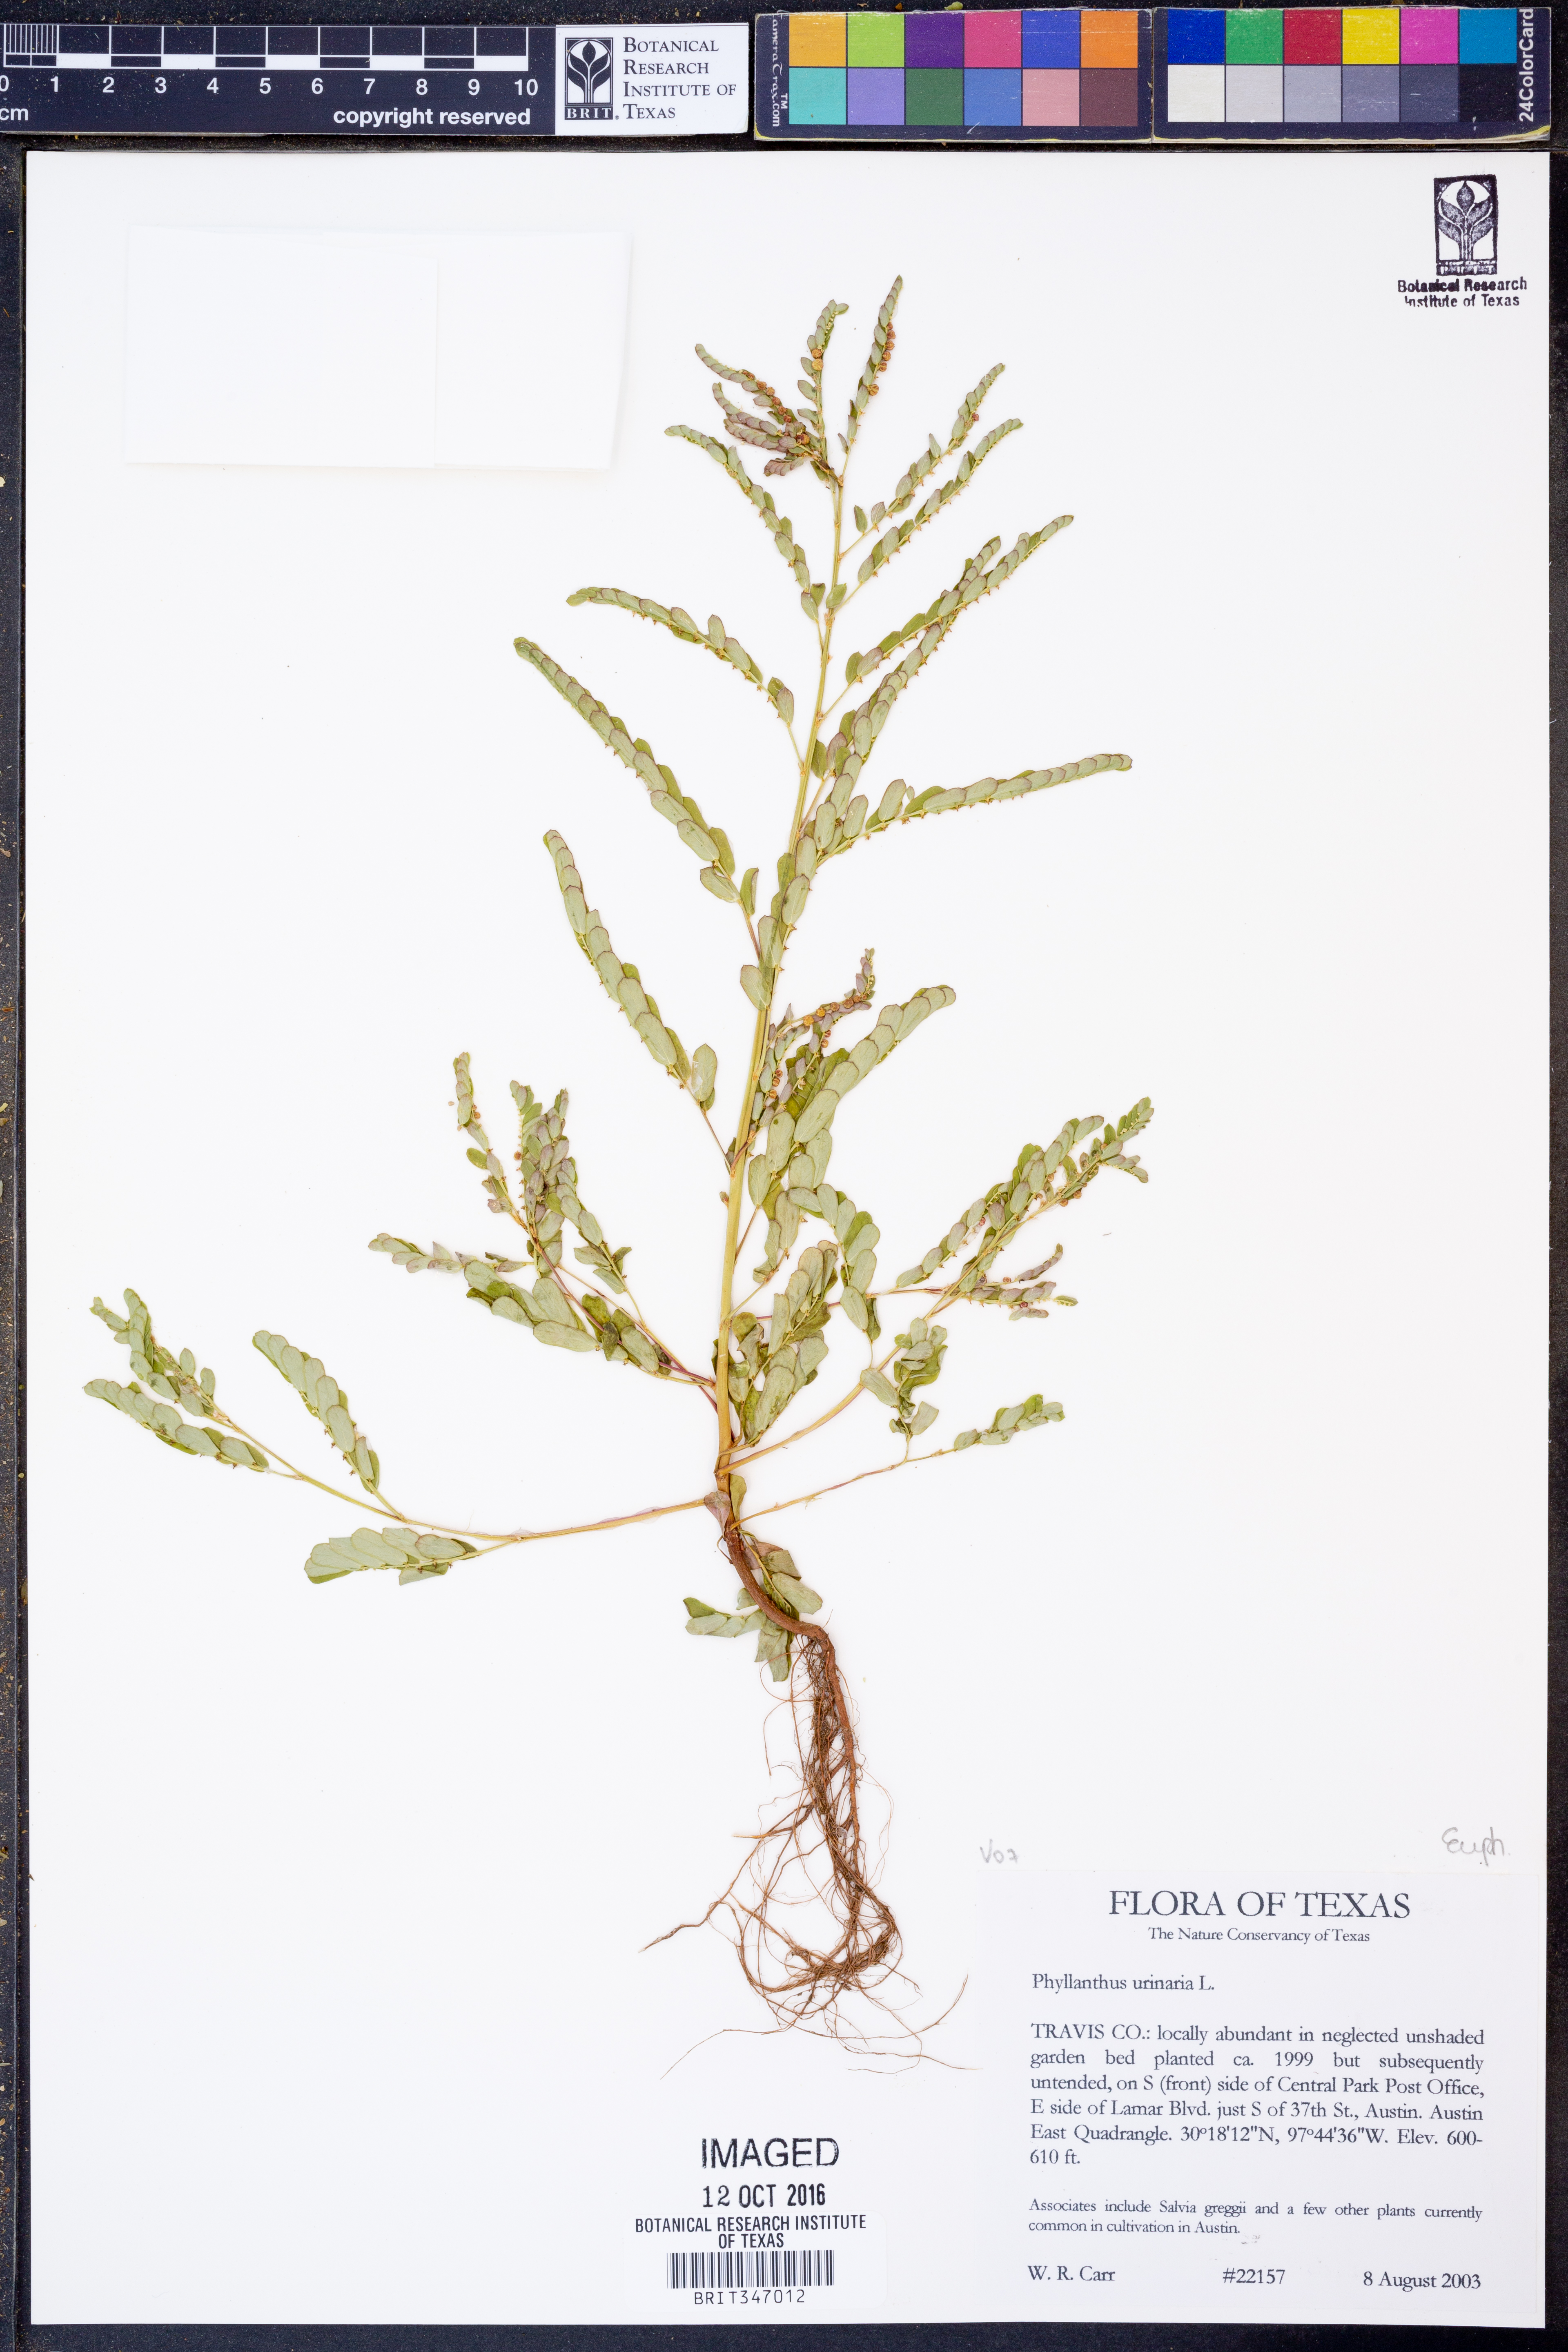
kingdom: Plantae
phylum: Tracheophyta
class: Magnoliopsida
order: Malpighiales
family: Phyllanthaceae
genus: Phyllanthus
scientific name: Phyllanthus urinaria
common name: Chamber bitter
